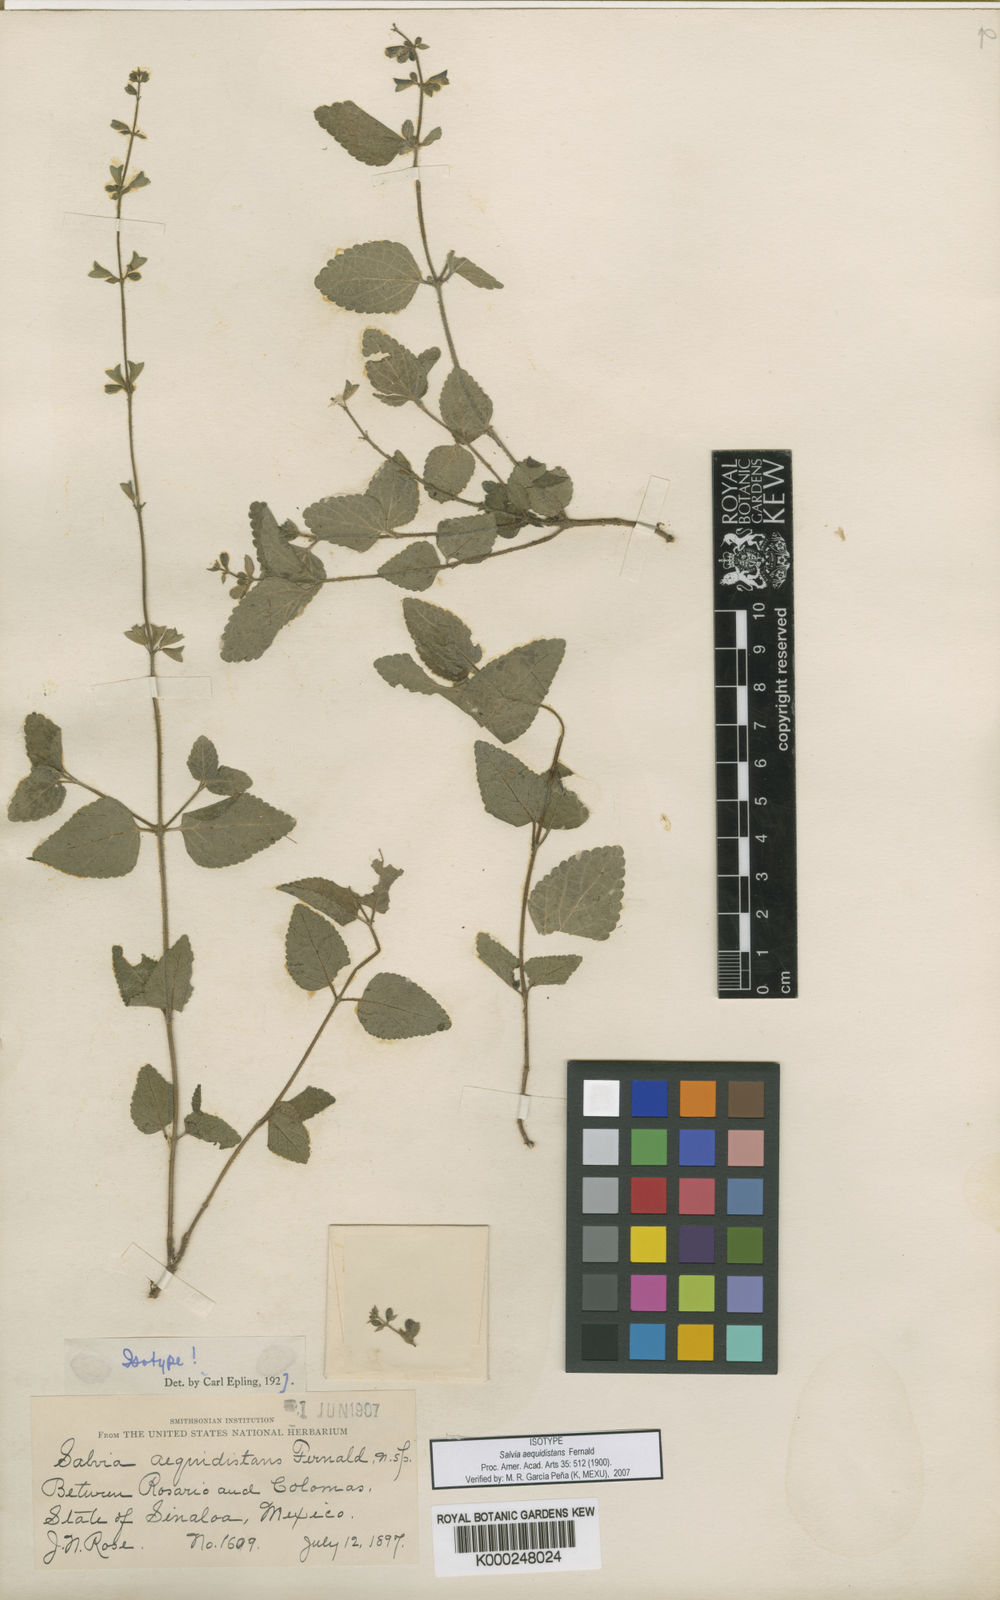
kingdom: Plantae
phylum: Tracheophyta
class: Magnoliopsida
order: Lamiales
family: Lamiaceae
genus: Salvia
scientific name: Salvia aequidistans
